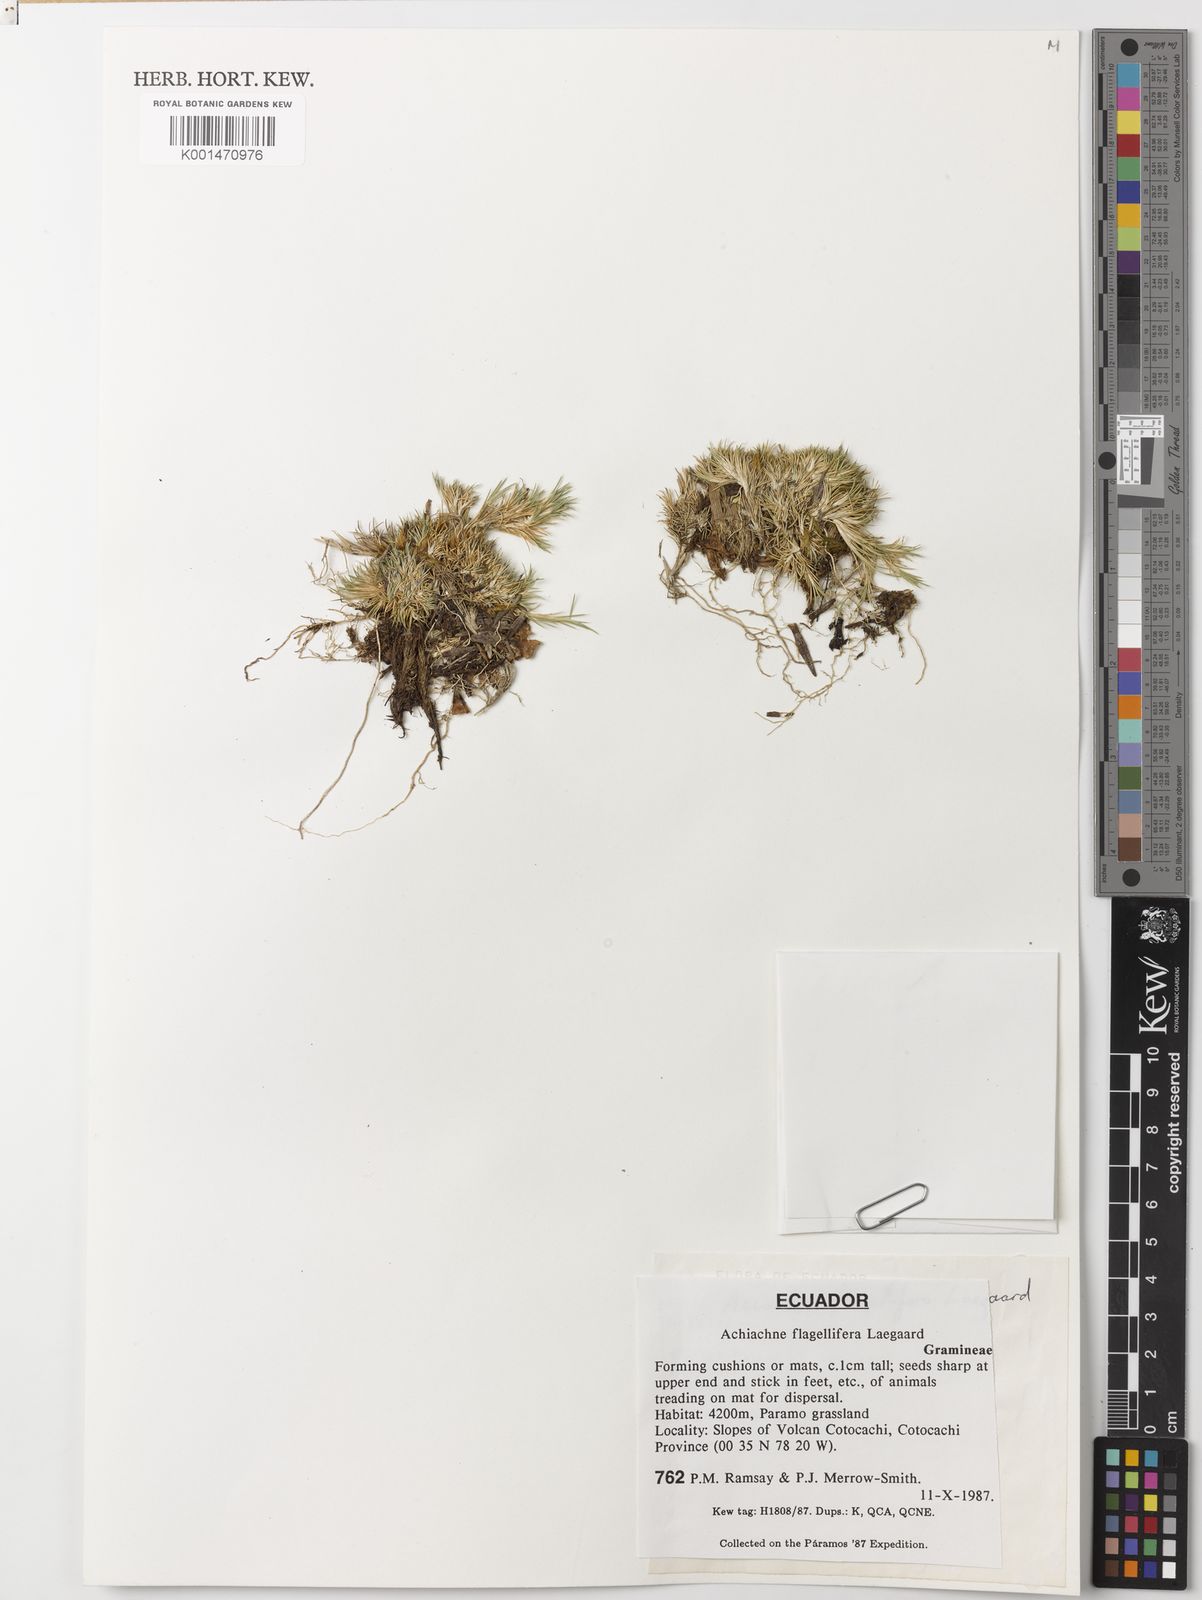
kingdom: Plantae
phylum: Tracheophyta
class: Liliopsida
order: Poales
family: Poaceae
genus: Aciachne
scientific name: Aciachne flagellifera
